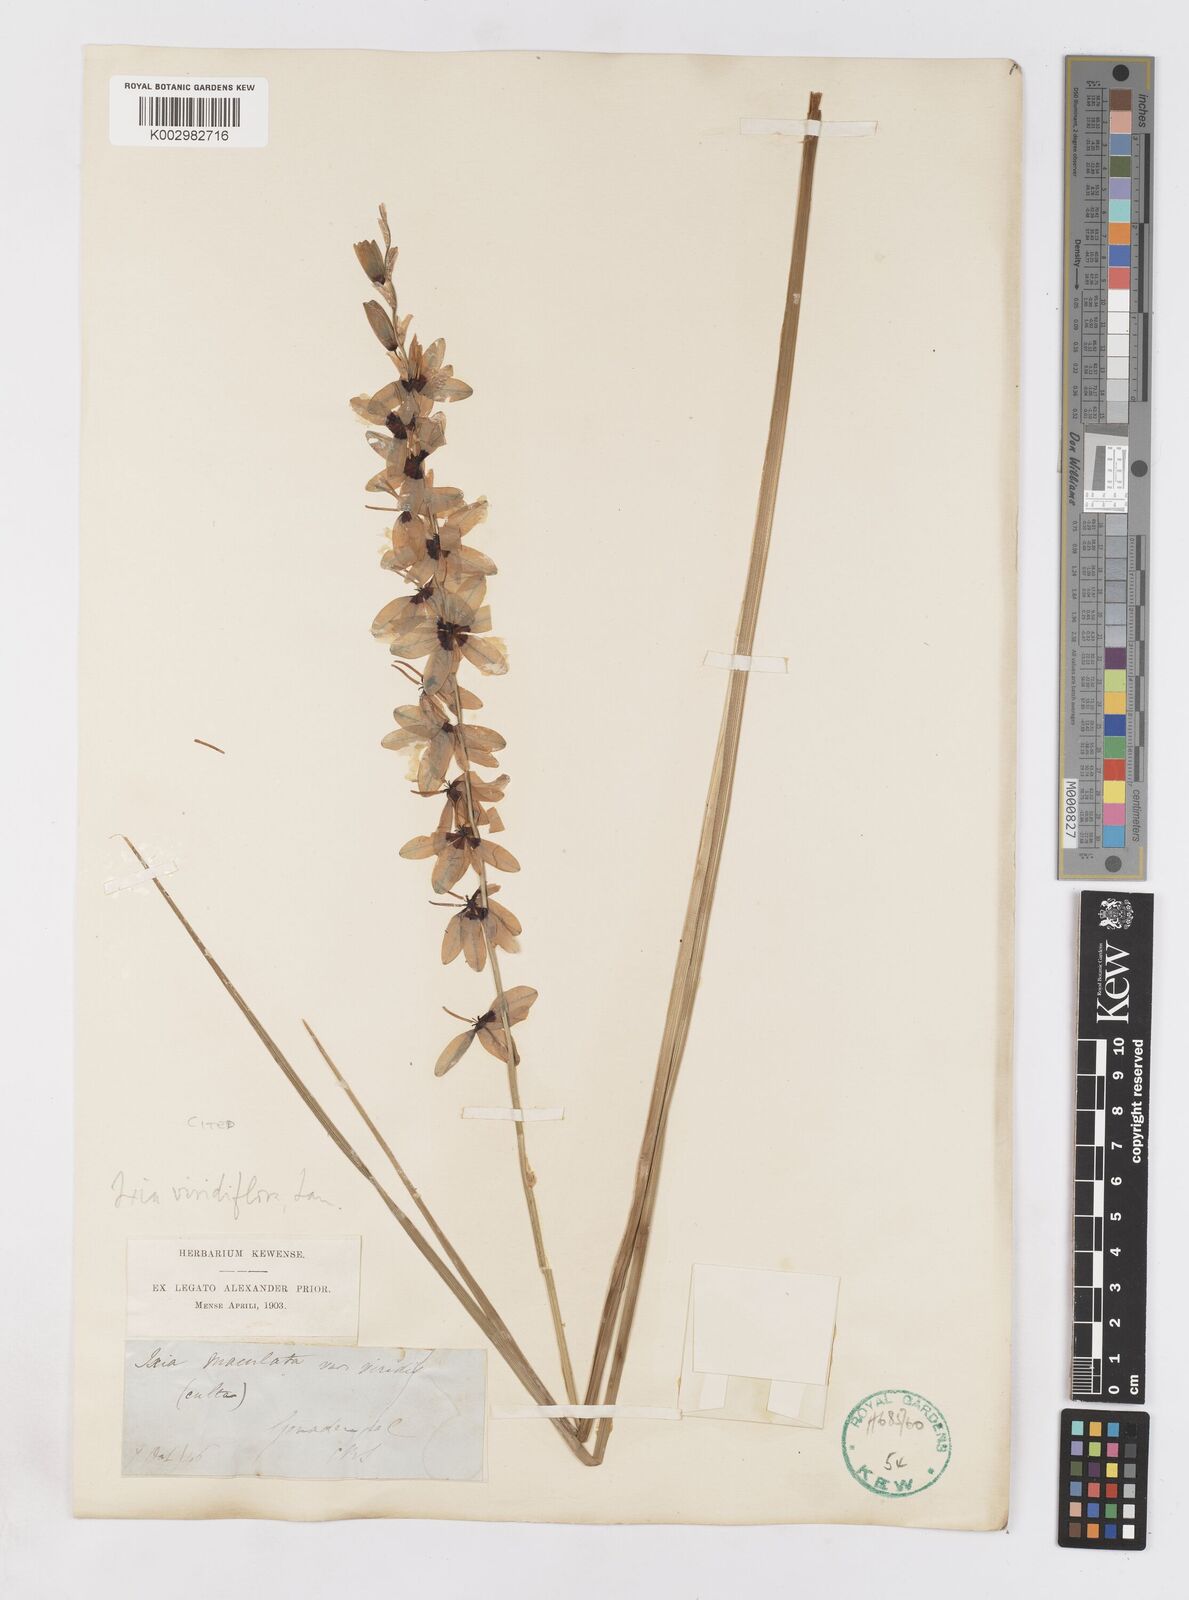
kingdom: Plantae
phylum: Tracheophyta
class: Liliopsida
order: Asparagales
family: Iridaceae
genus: Ixia
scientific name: Ixia viridiflora
